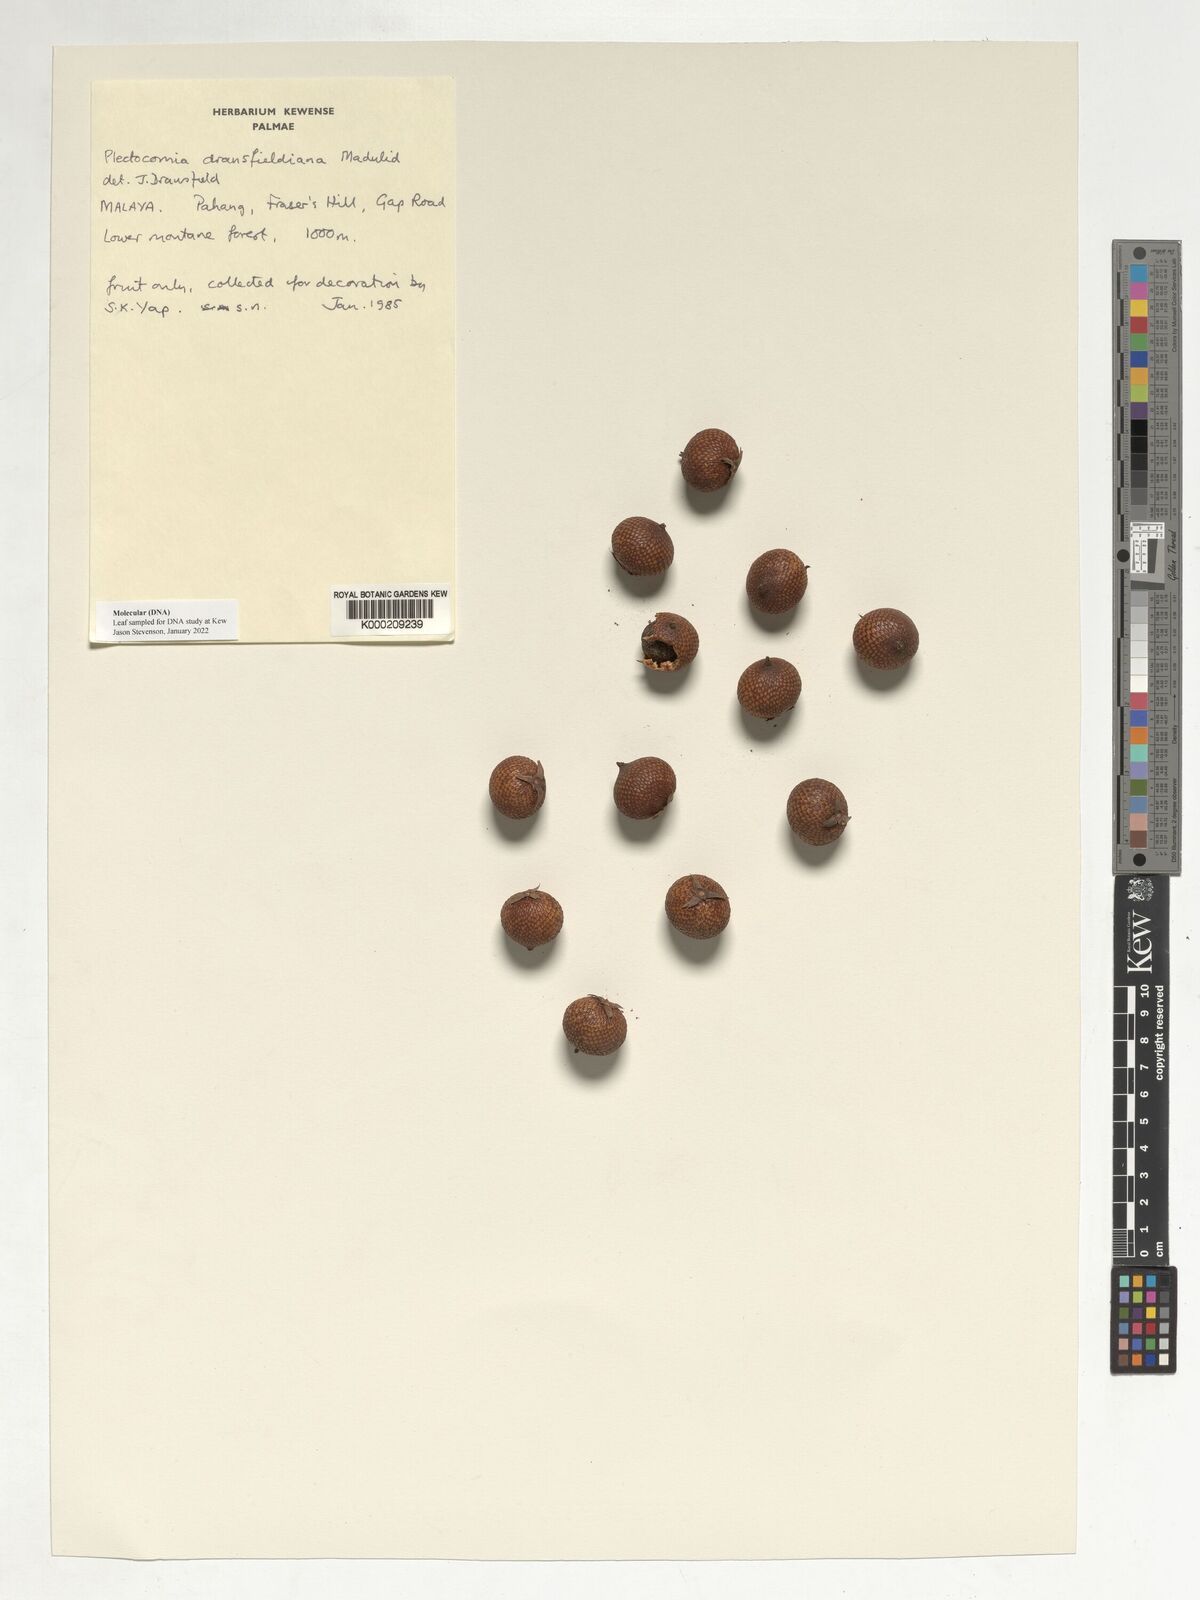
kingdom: Plantae
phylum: Tracheophyta
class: Liliopsida
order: Arecales
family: Arecaceae
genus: Plectocomia
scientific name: Plectocomia dransfieldiana
